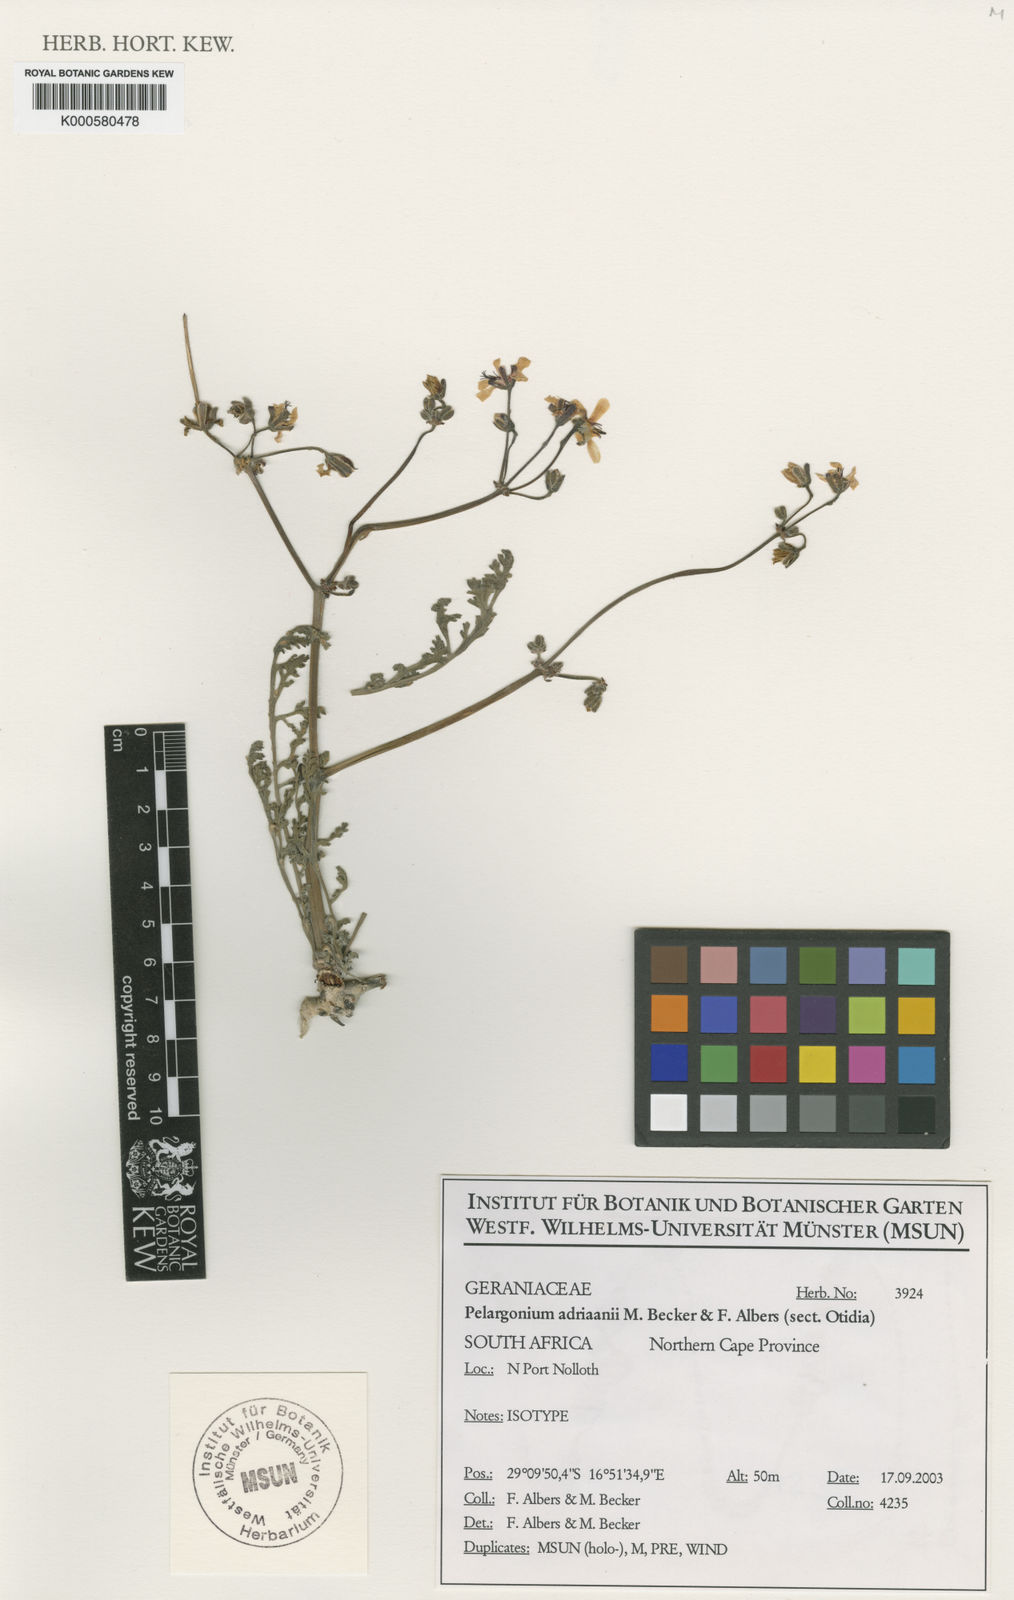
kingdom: Plantae
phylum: Tracheophyta
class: Magnoliopsida
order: Geraniales
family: Geraniaceae
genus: Pelargonium
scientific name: Pelargonium adriaanii
